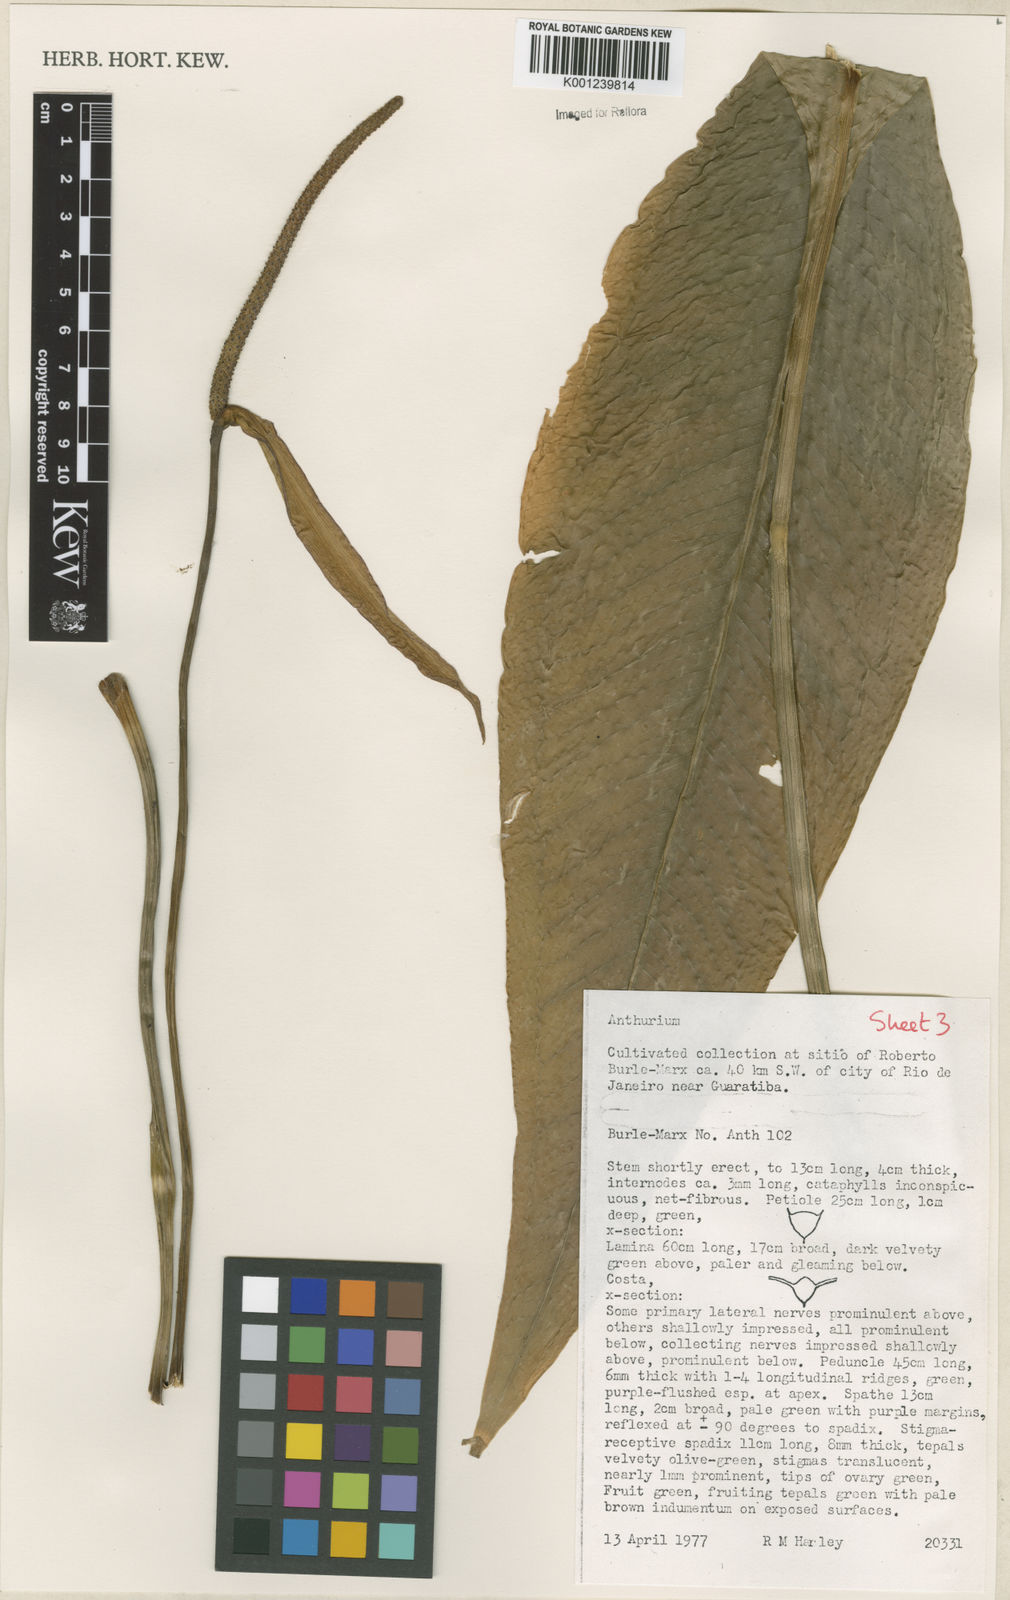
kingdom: Plantae
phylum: Tracheophyta
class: Liliopsida
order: Alismatales
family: Araceae
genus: Anthurium
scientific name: Anthurium
